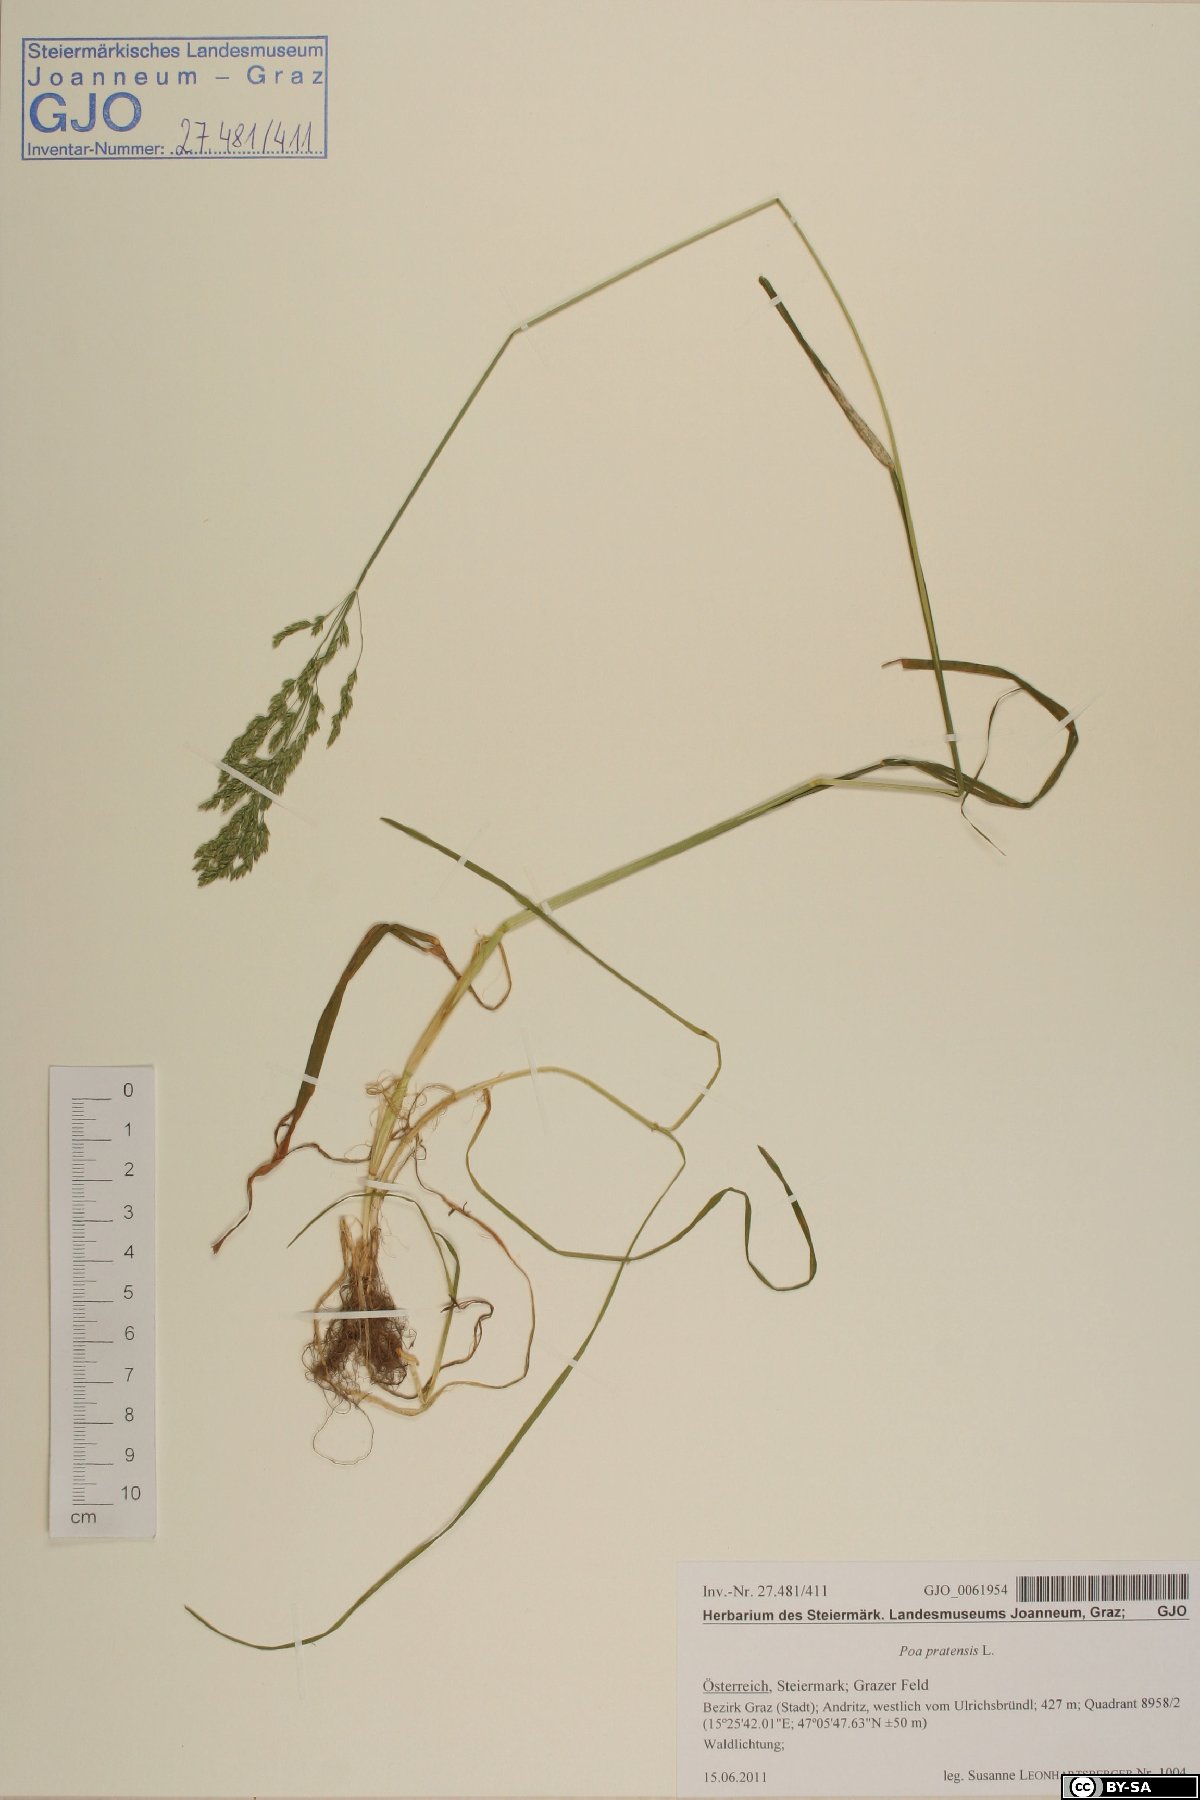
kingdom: Plantae
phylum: Tracheophyta
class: Liliopsida
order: Poales
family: Poaceae
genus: Poa
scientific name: Poa pratensis
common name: Kentucky bluegrass
